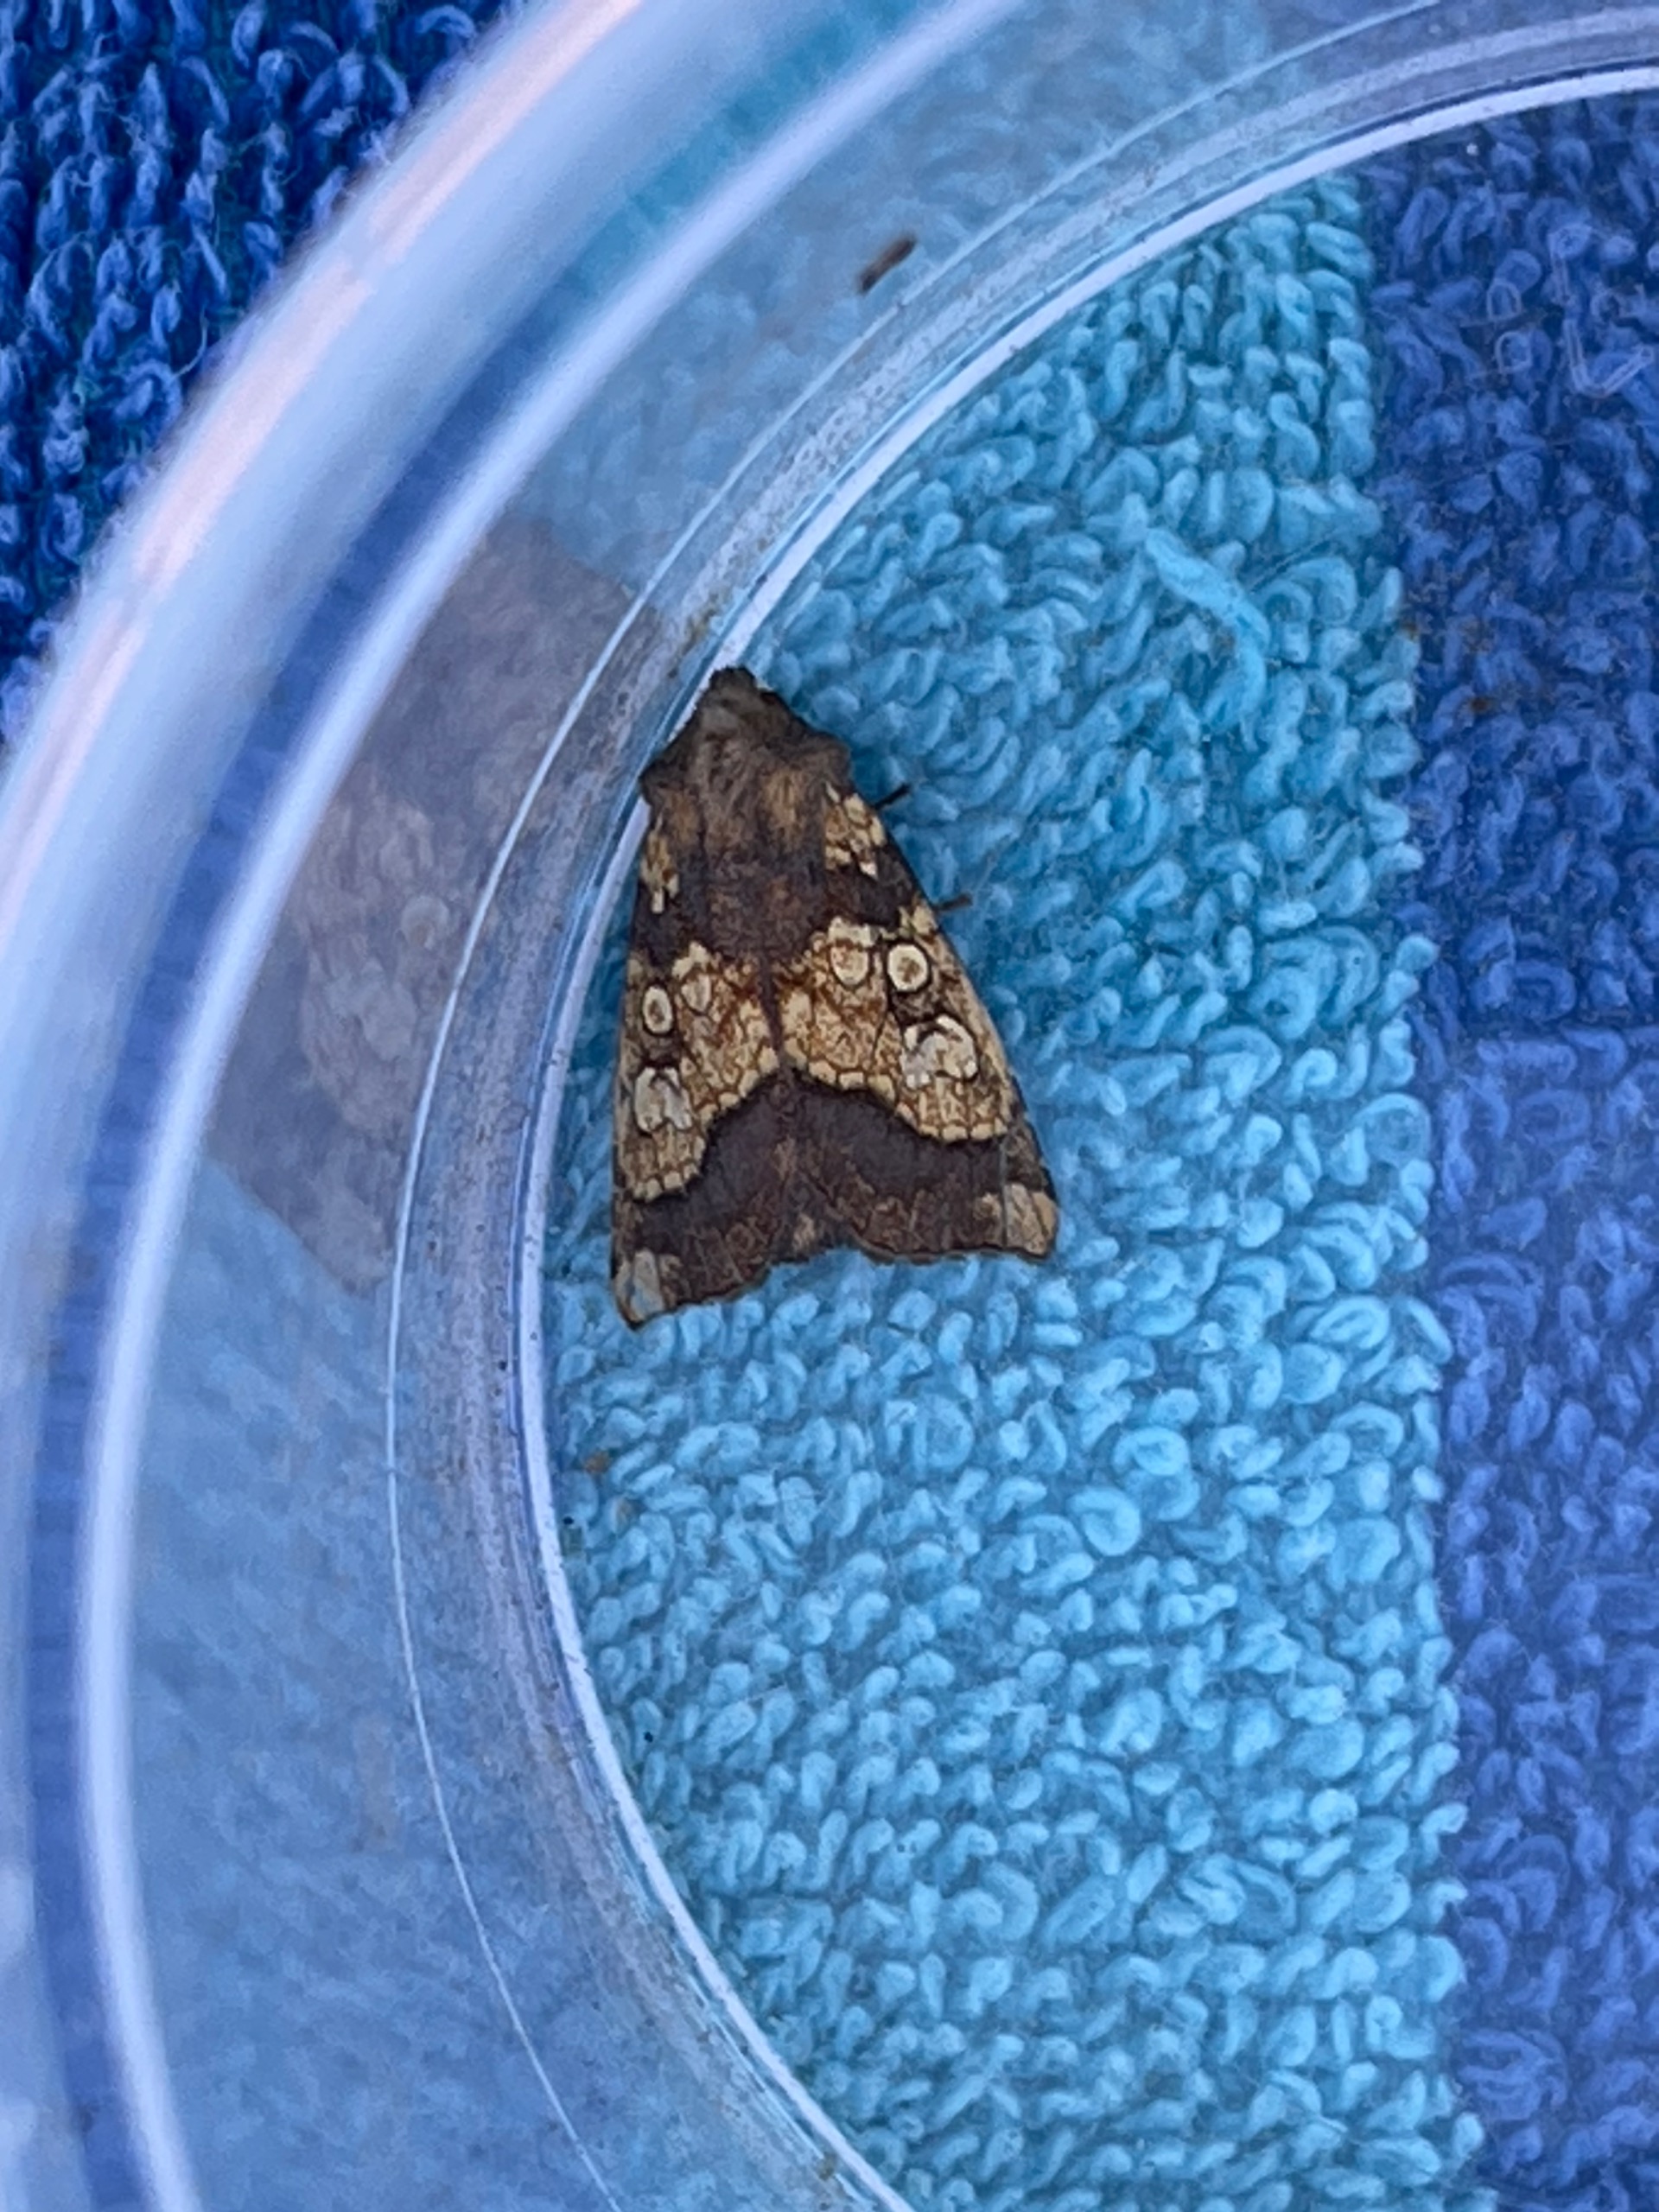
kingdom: Animalia
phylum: Arthropoda
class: Insecta
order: Lepidoptera
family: Noctuidae
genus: Gortyna
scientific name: Gortyna flavago
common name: Burreugle
